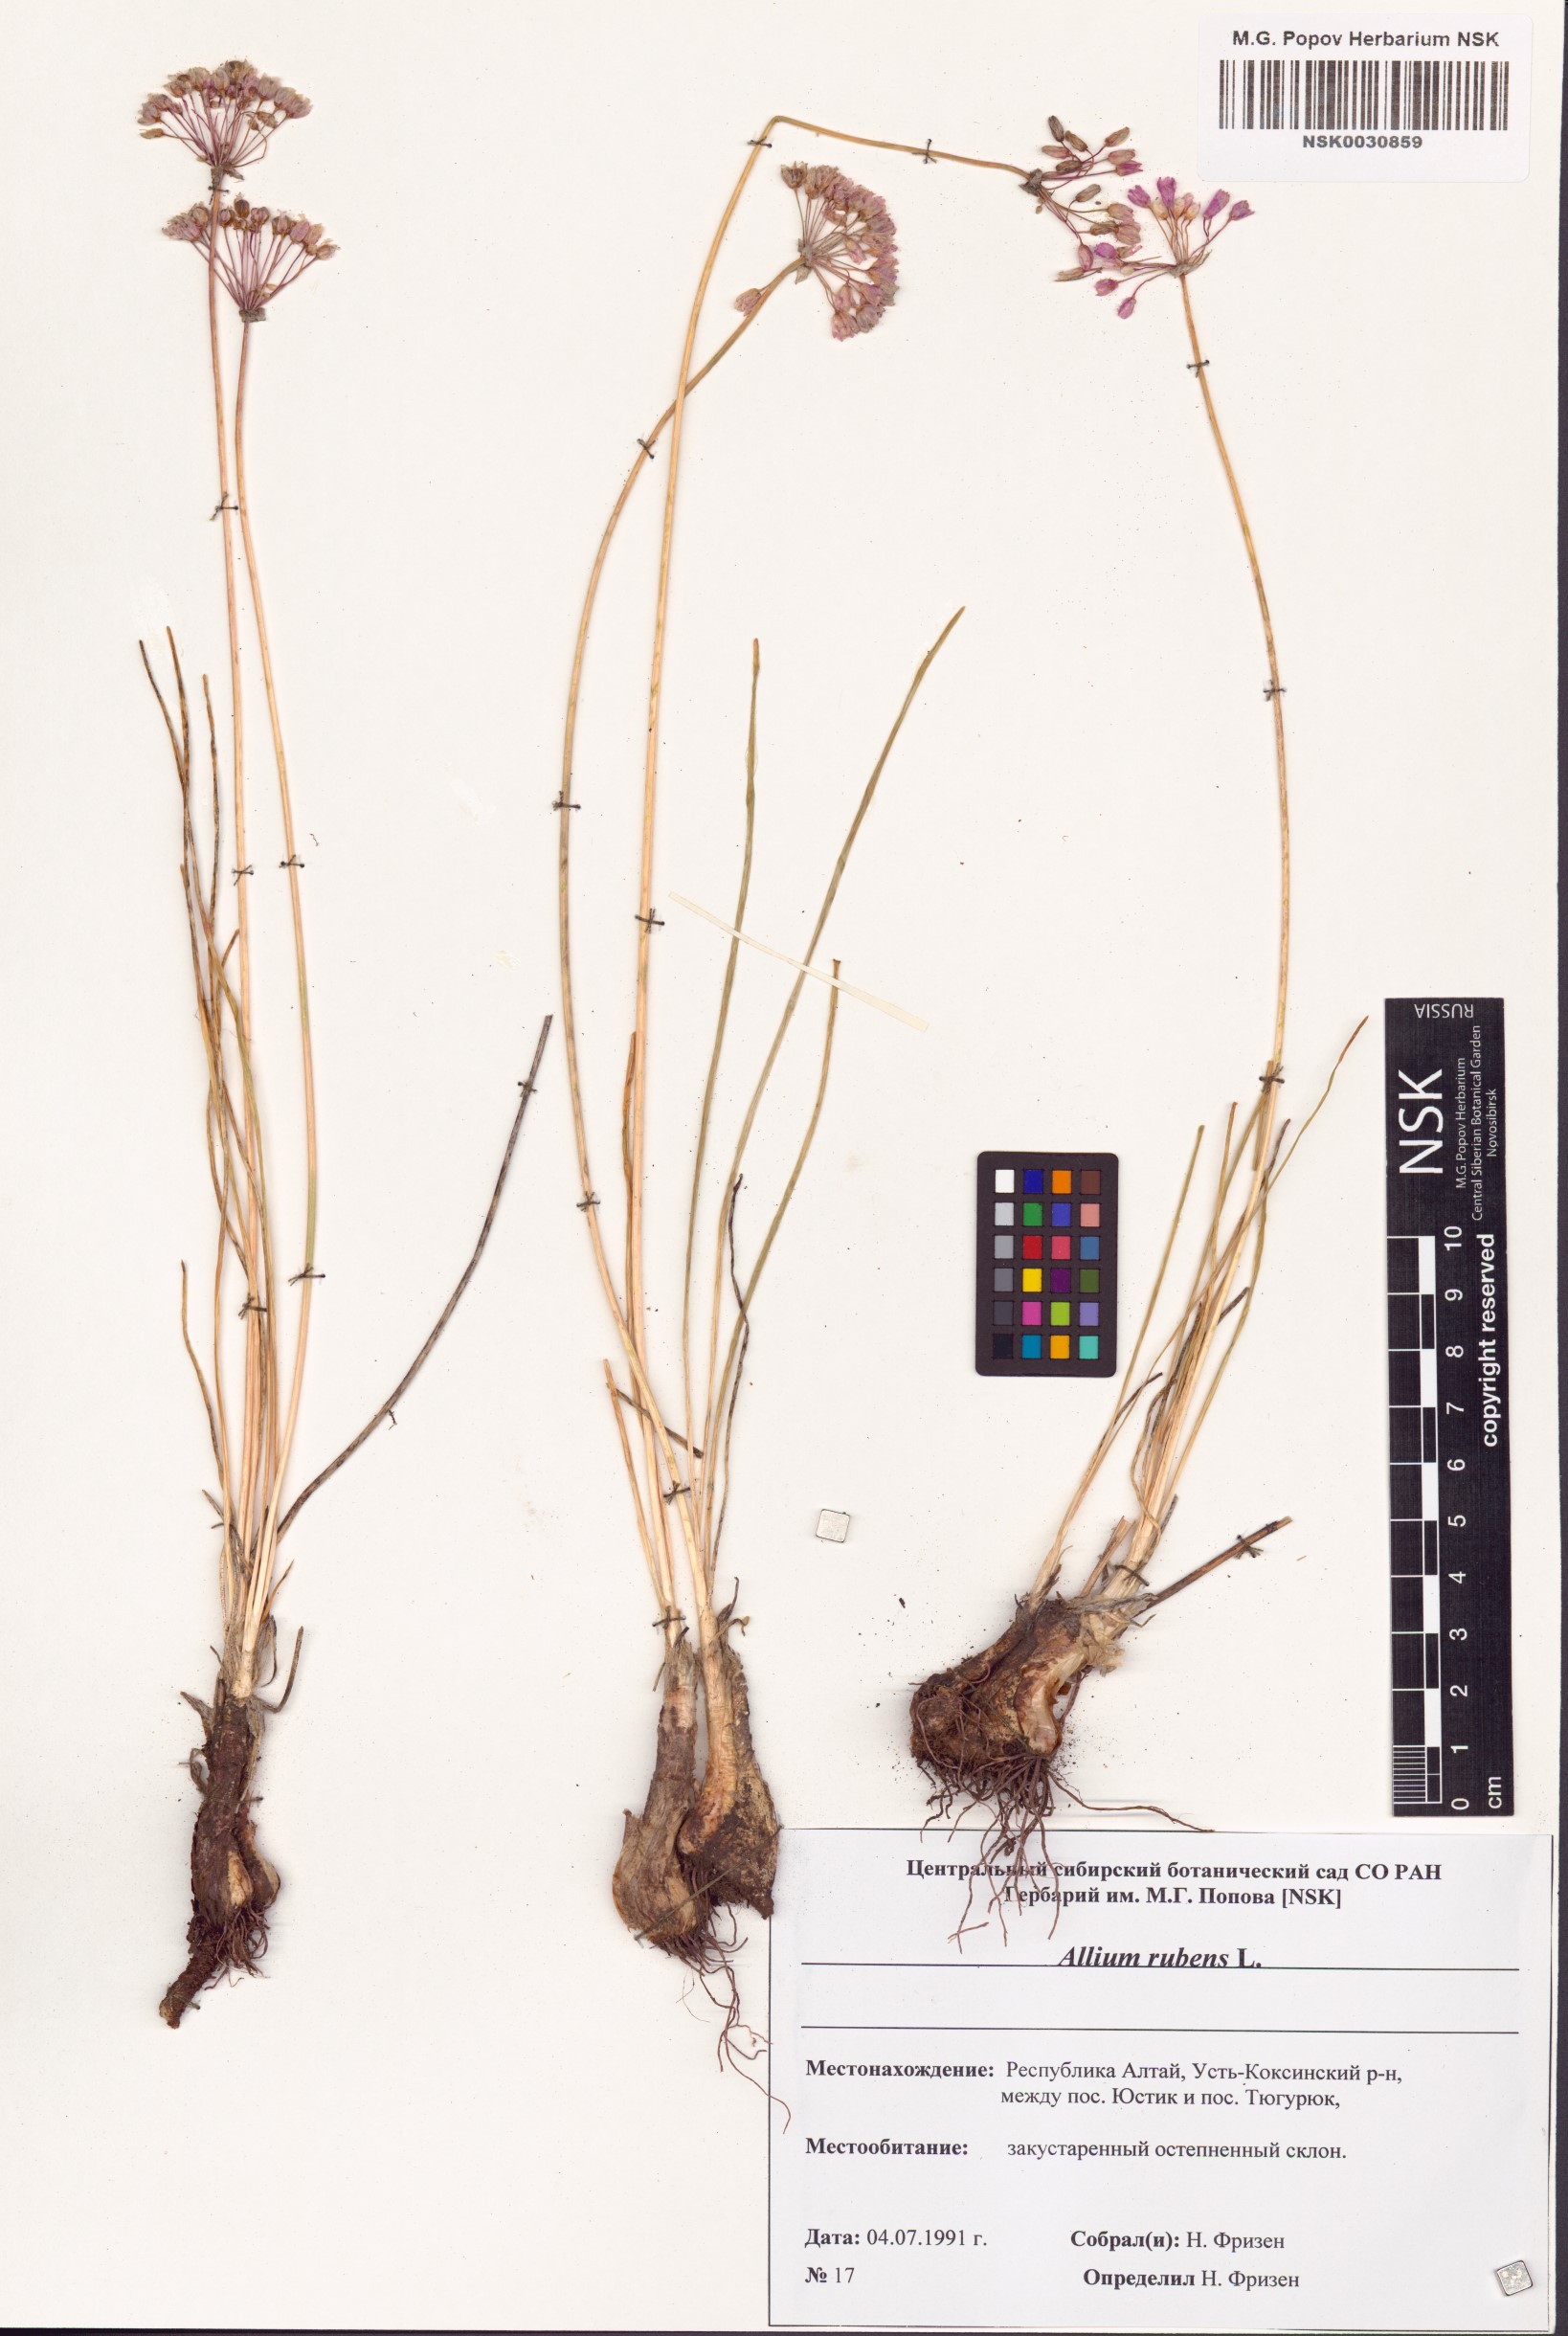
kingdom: Plantae
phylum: Tracheophyta
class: Liliopsida
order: Asparagales
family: Amaryllidaceae
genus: Allium
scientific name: Allium rubens
